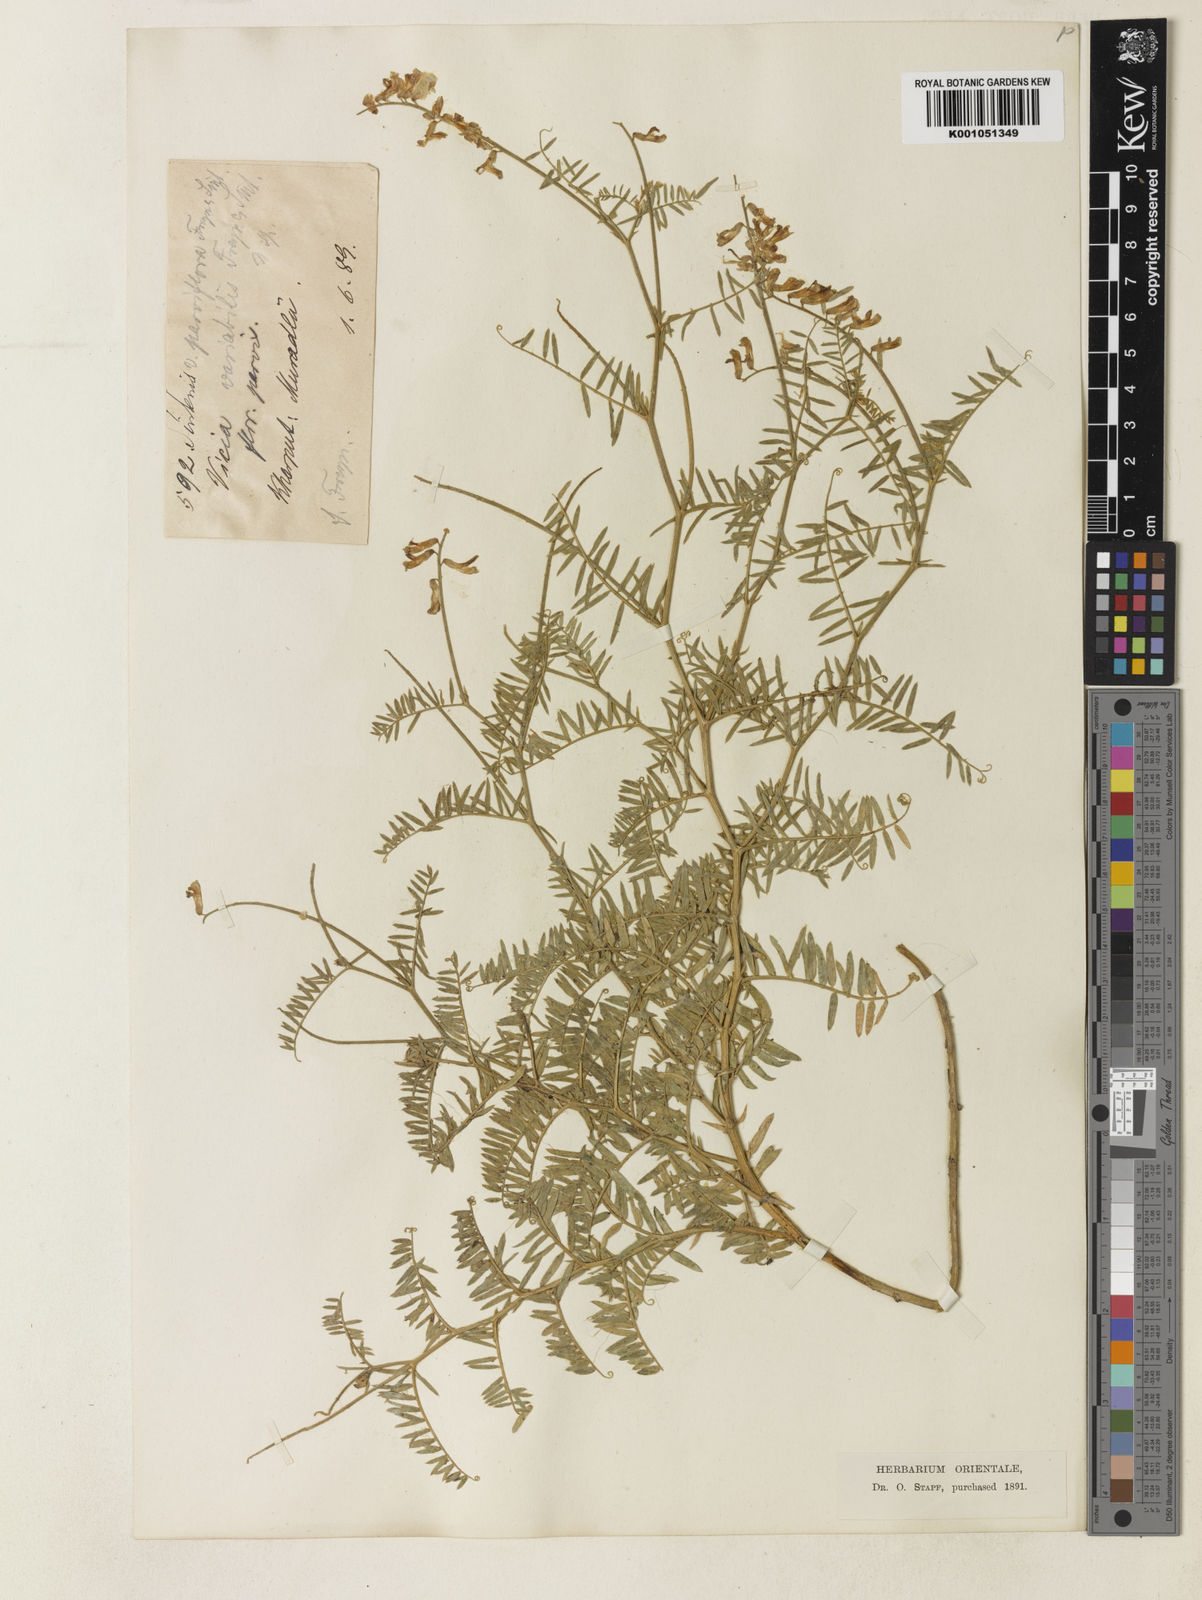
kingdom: Plantae
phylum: Tracheophyta
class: Magnoliopsida
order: Fabales
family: Fabaceae
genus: Vicia
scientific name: Vicia tenuifolia
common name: Fine-leaved vetch
